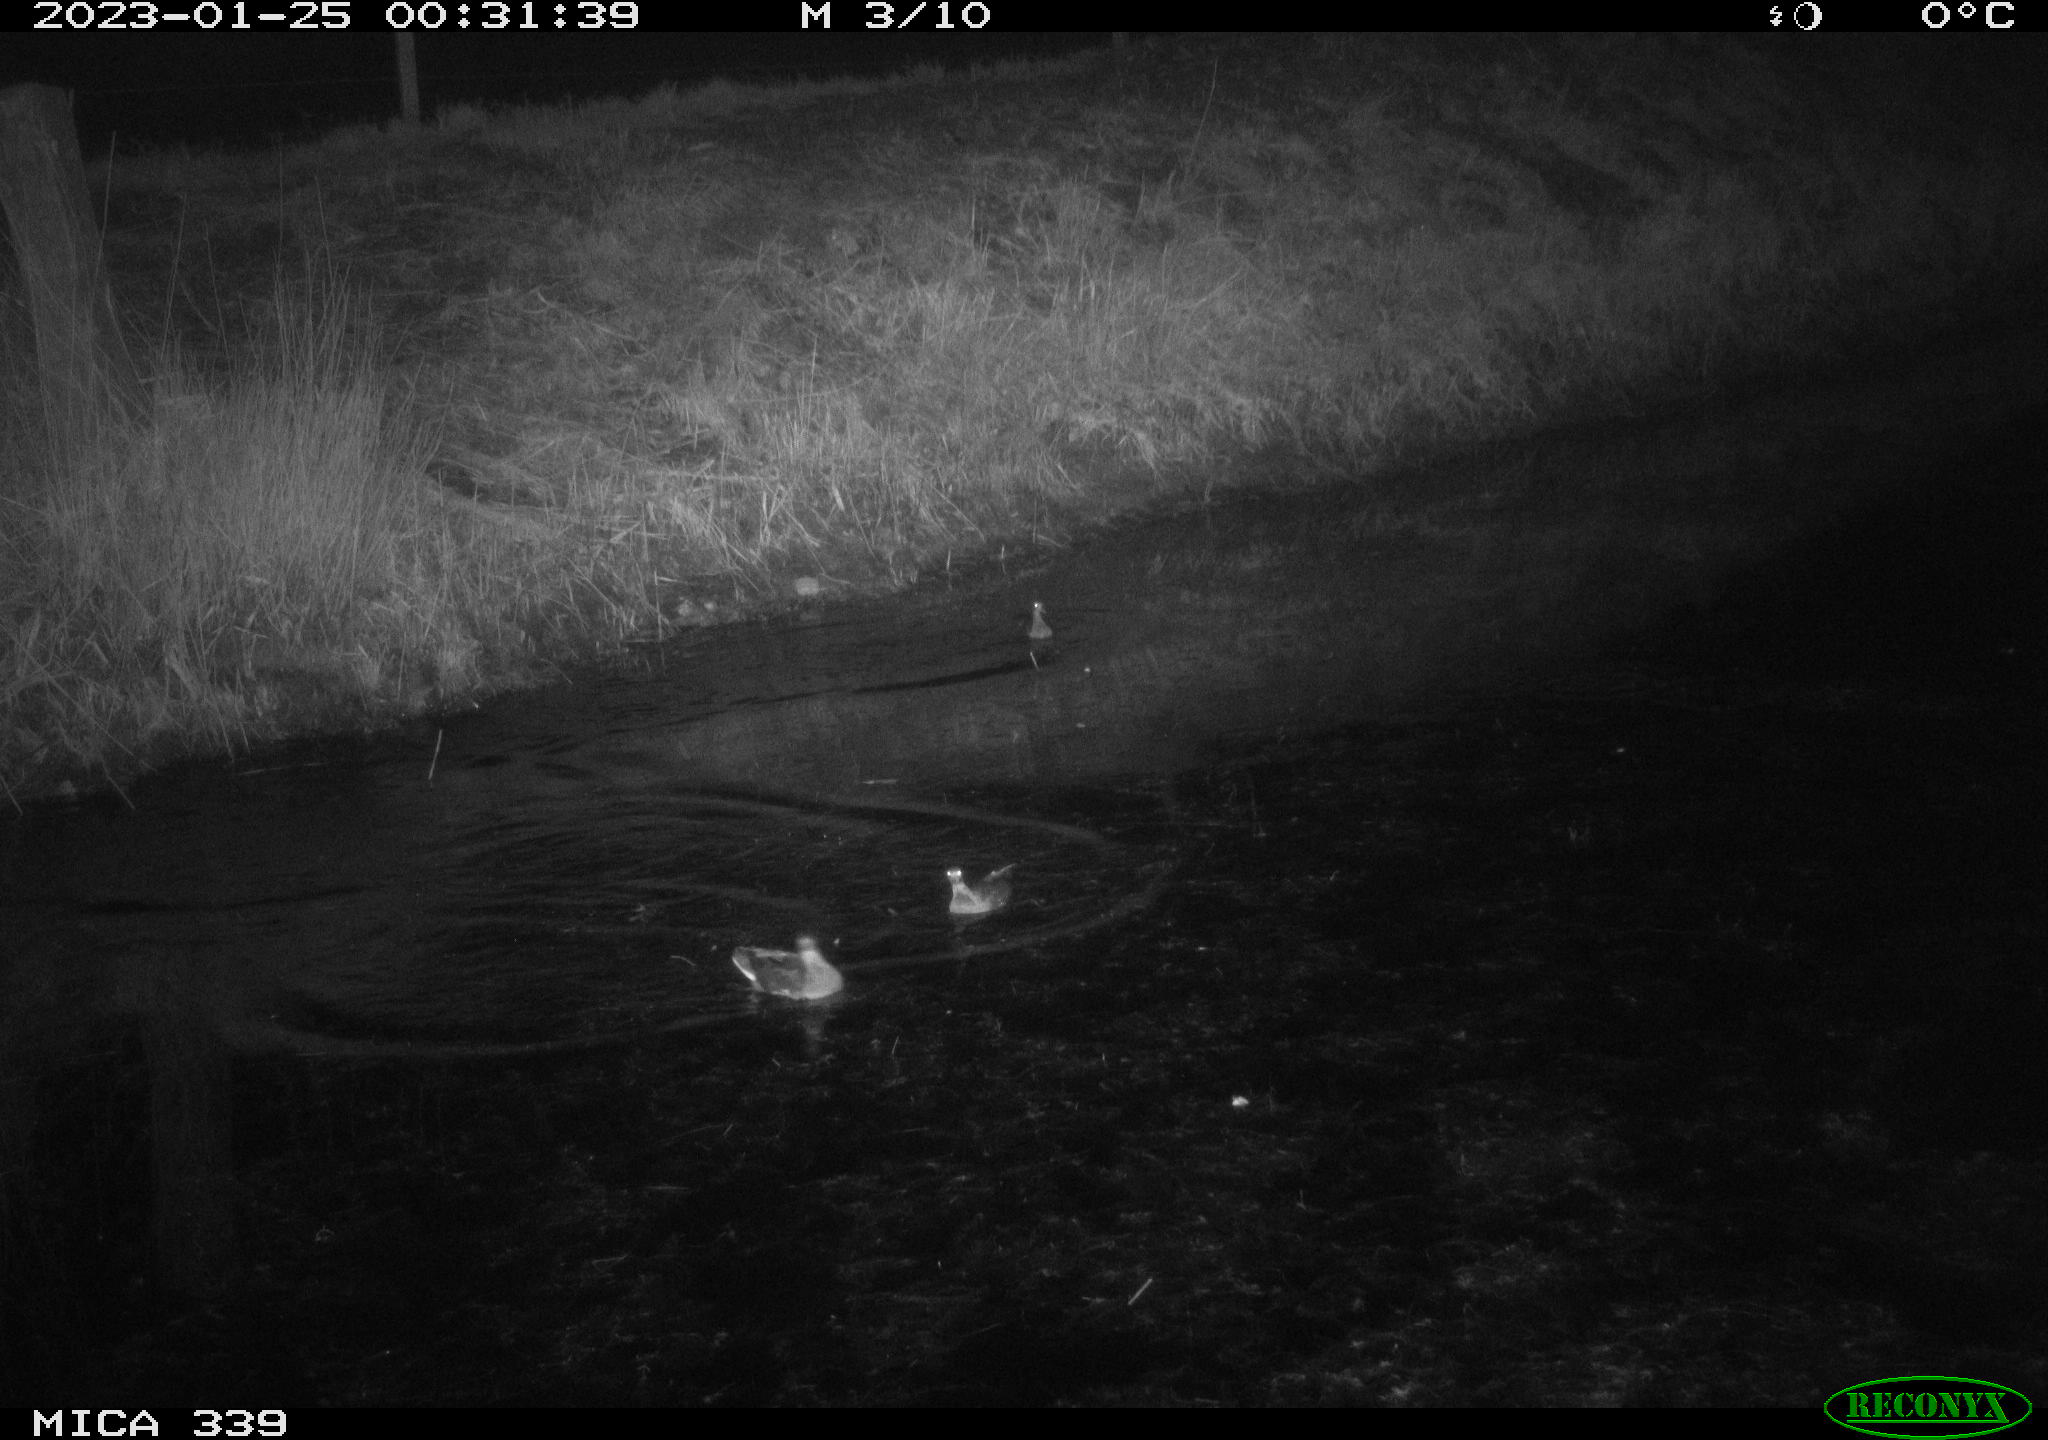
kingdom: Animalia
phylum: Chordata
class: Aves
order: Gruiformes
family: Rallidae
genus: Gallinula
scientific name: Gallinula chloropus
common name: Common moorhen
